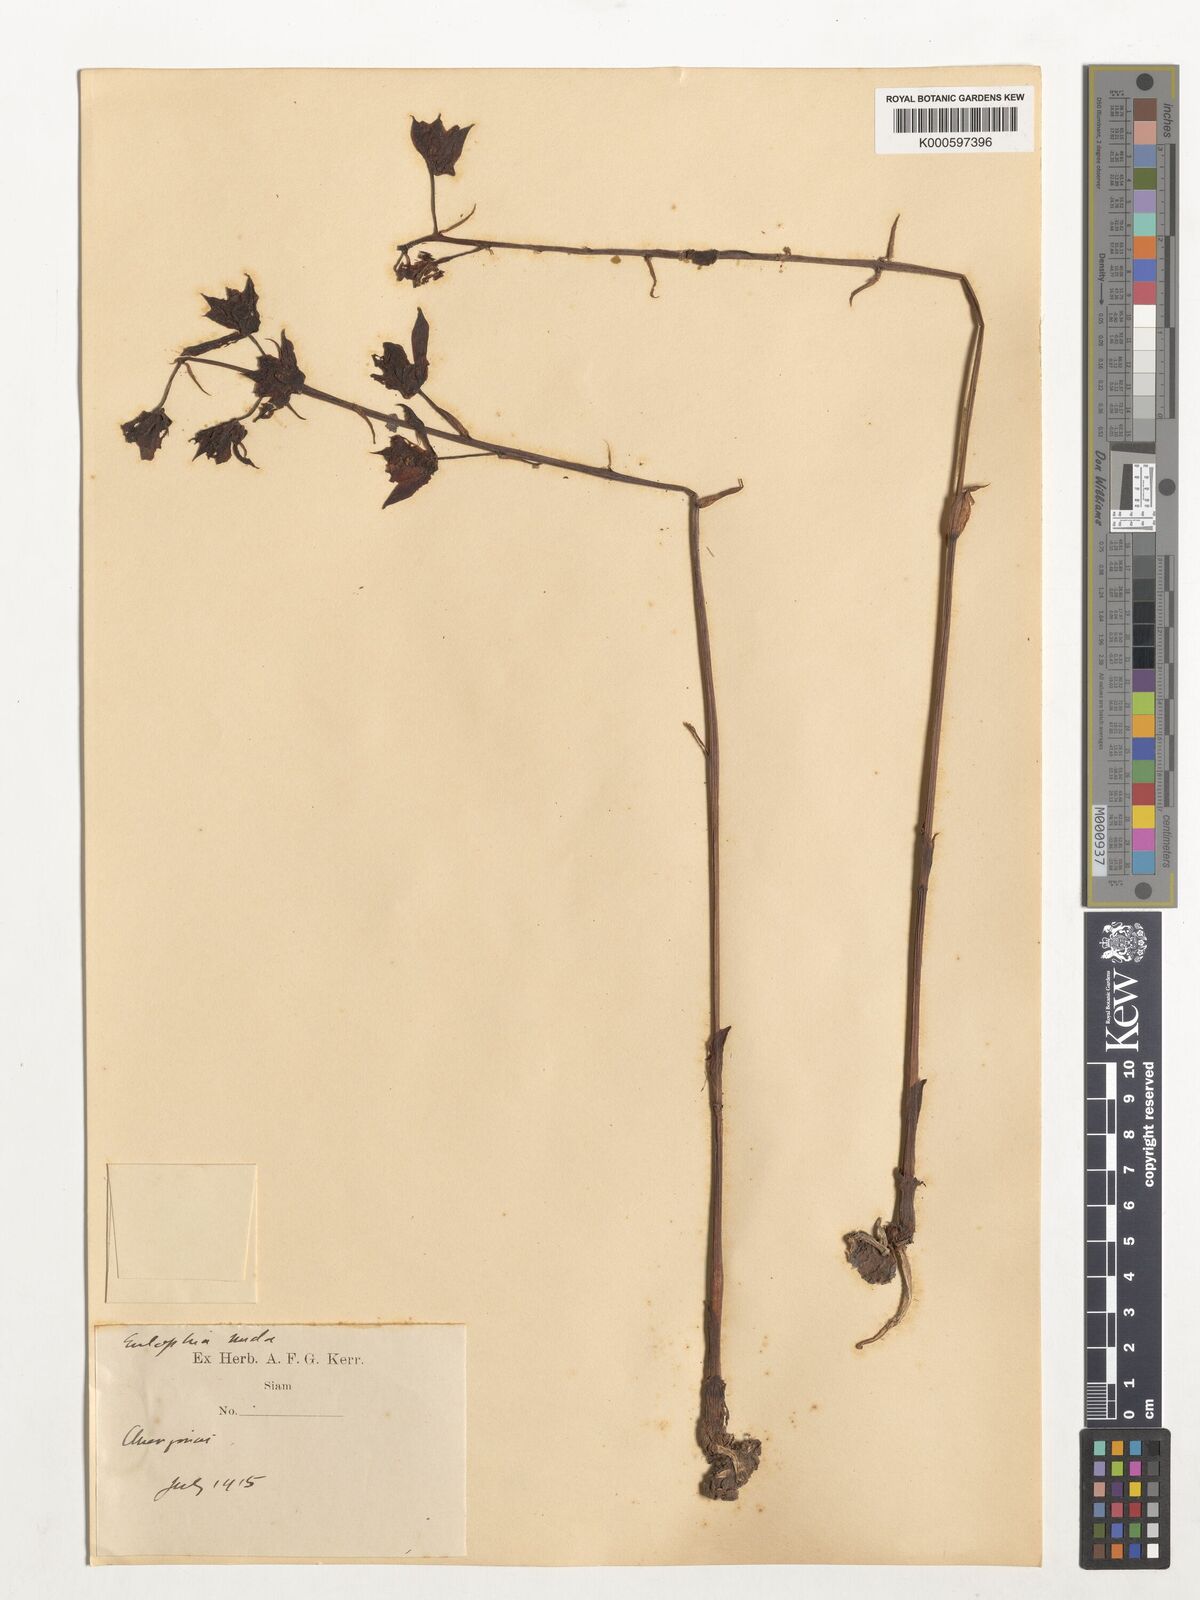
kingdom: Plantae
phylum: Tracheophyta
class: Liliopsida
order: Asparagales
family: Orchidaceae
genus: Eulophia
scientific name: Eulophia nuda
